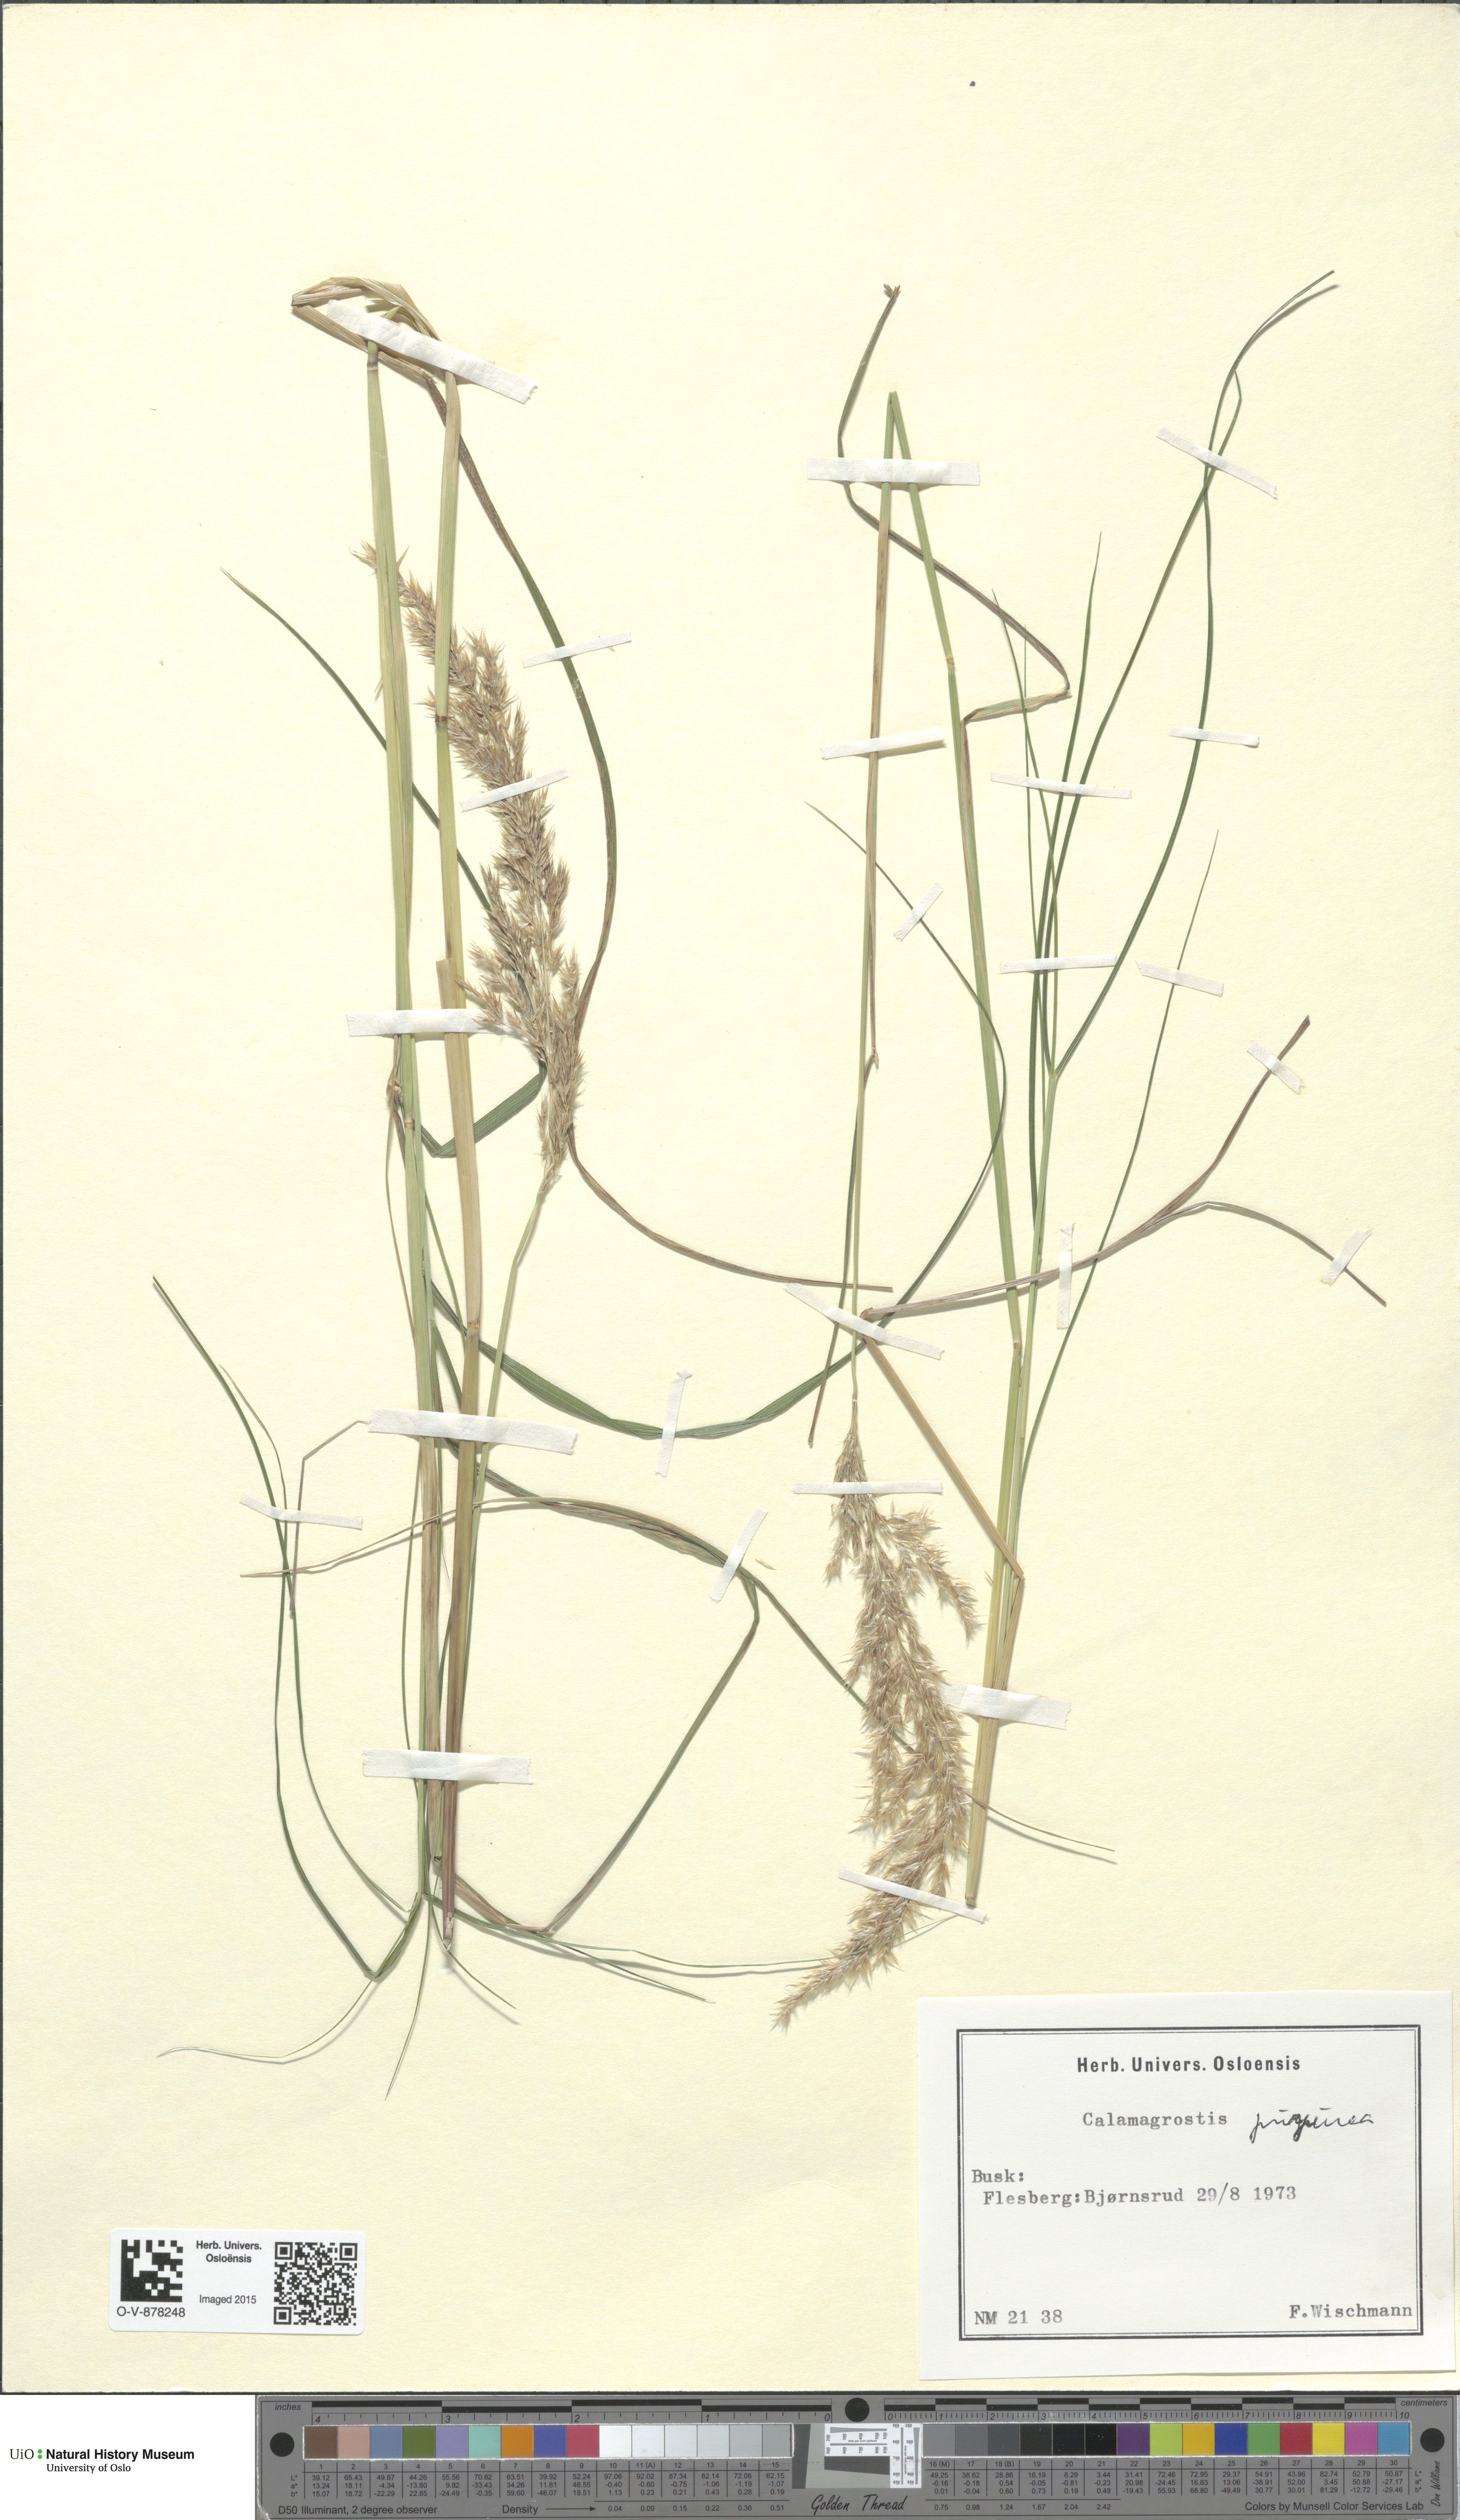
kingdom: Plantae
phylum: Tracheophyta
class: Liliopsida
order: Poales
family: Poaceae
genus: Calamagrostis
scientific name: Calamagrostis purpurea
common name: Scandinavian small-reed
